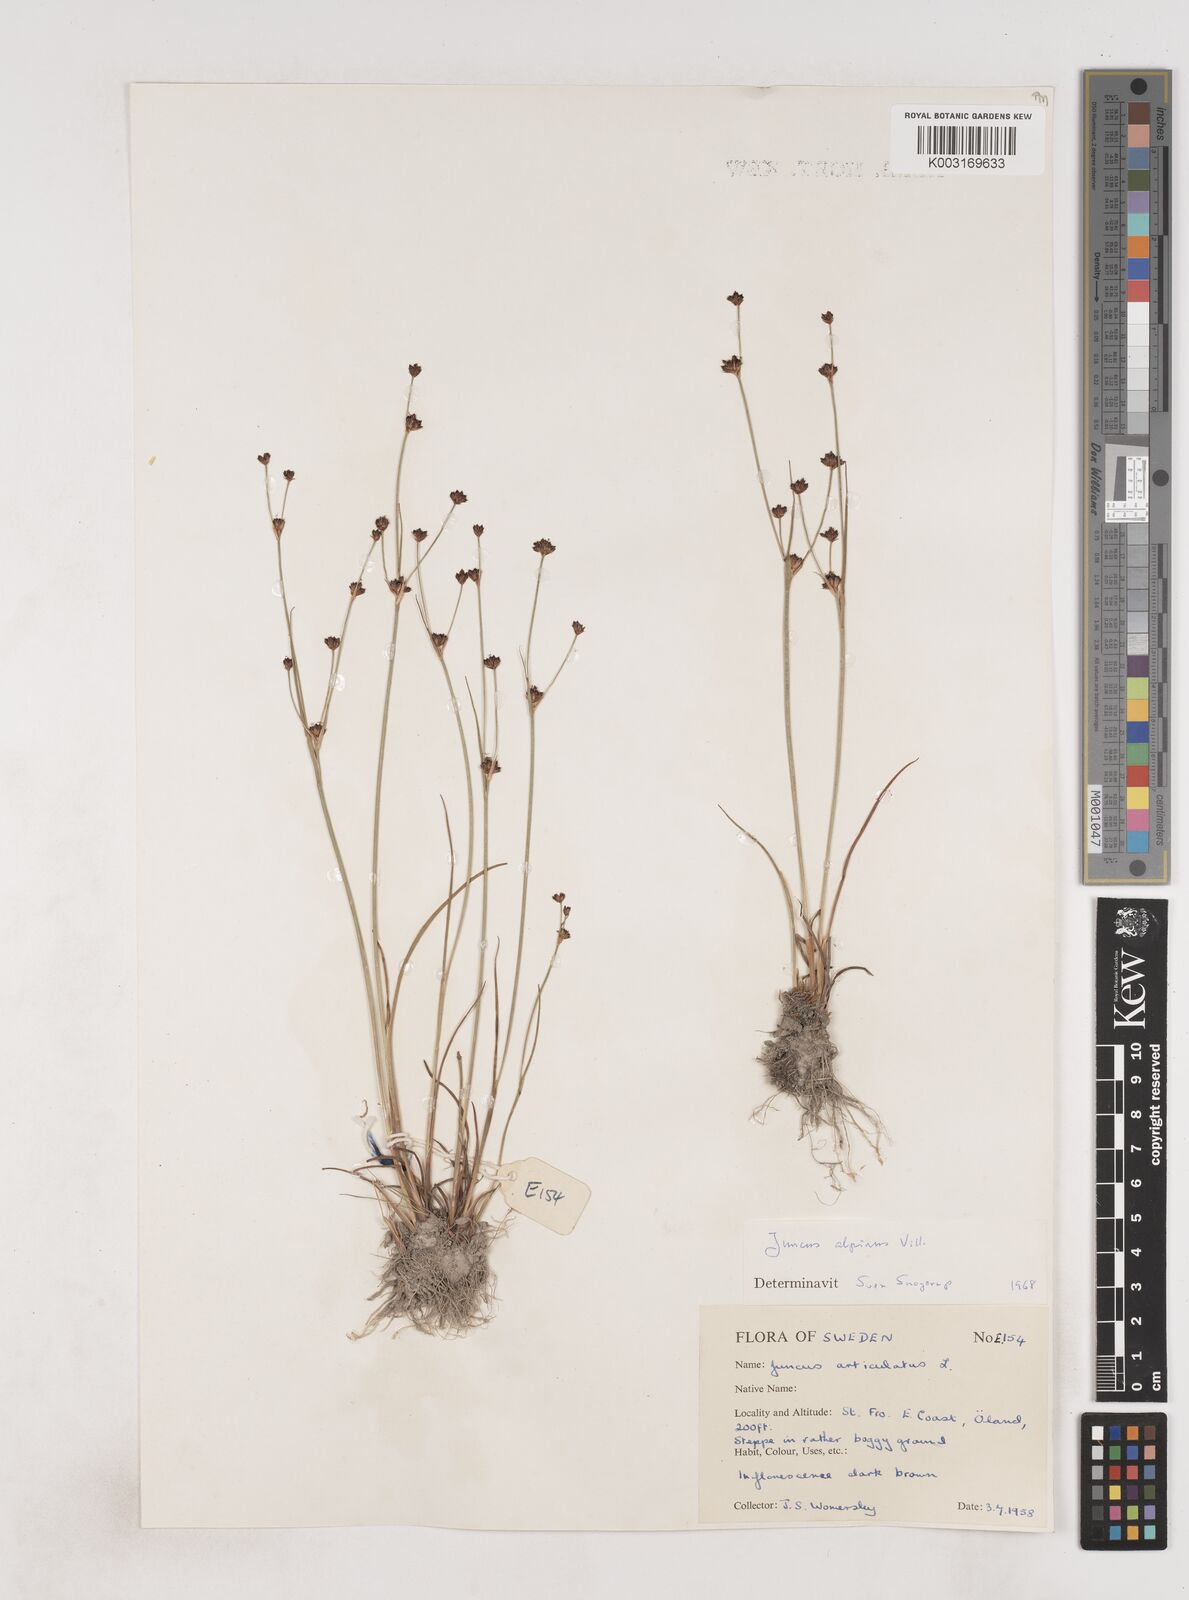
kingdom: Plantae
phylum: Tracheophyta
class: Liliopsida
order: Poales
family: Juncaceae
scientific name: Juncaceae
